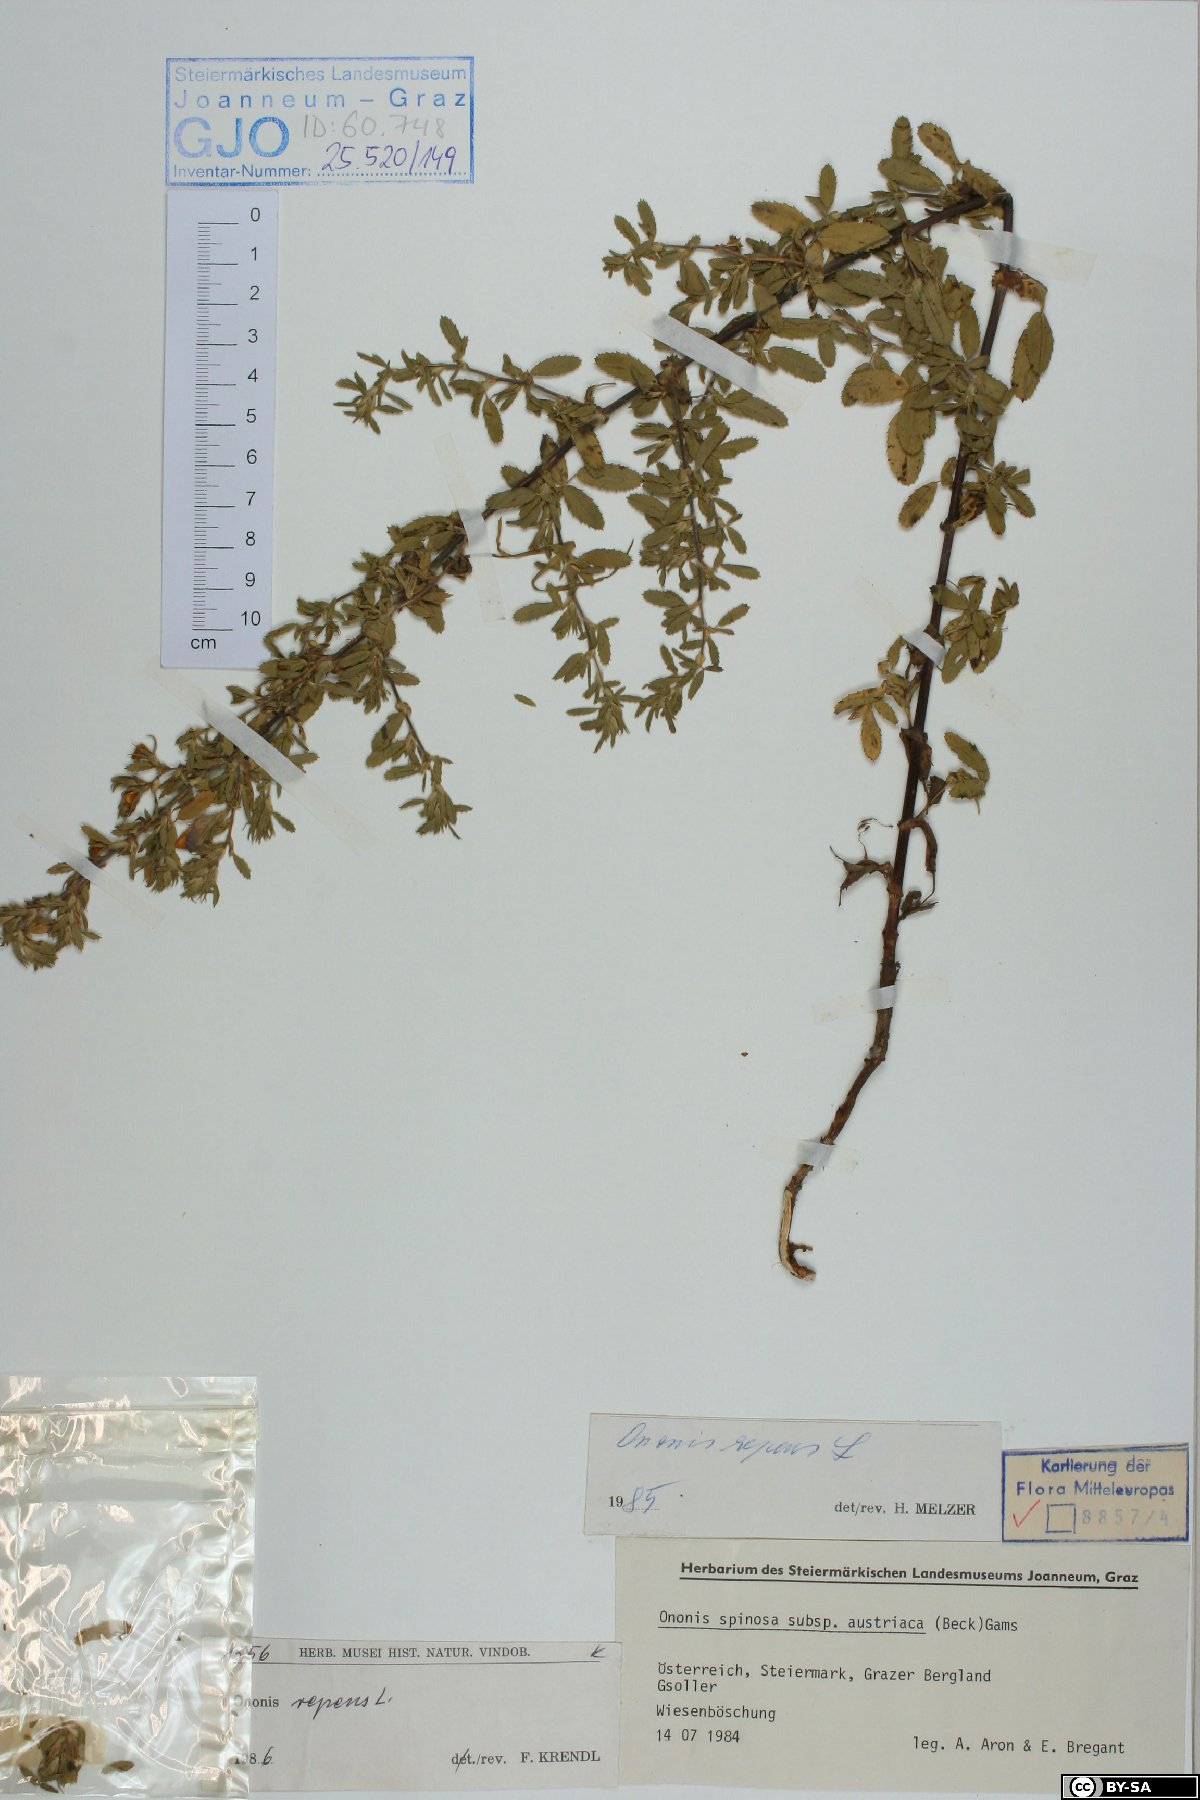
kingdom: Plantae
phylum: Tracheophyta
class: Magnoliopsida
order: Fabales
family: Fabaceae
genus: Ononis
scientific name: Ononis spinosa
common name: Spiny restharrow
